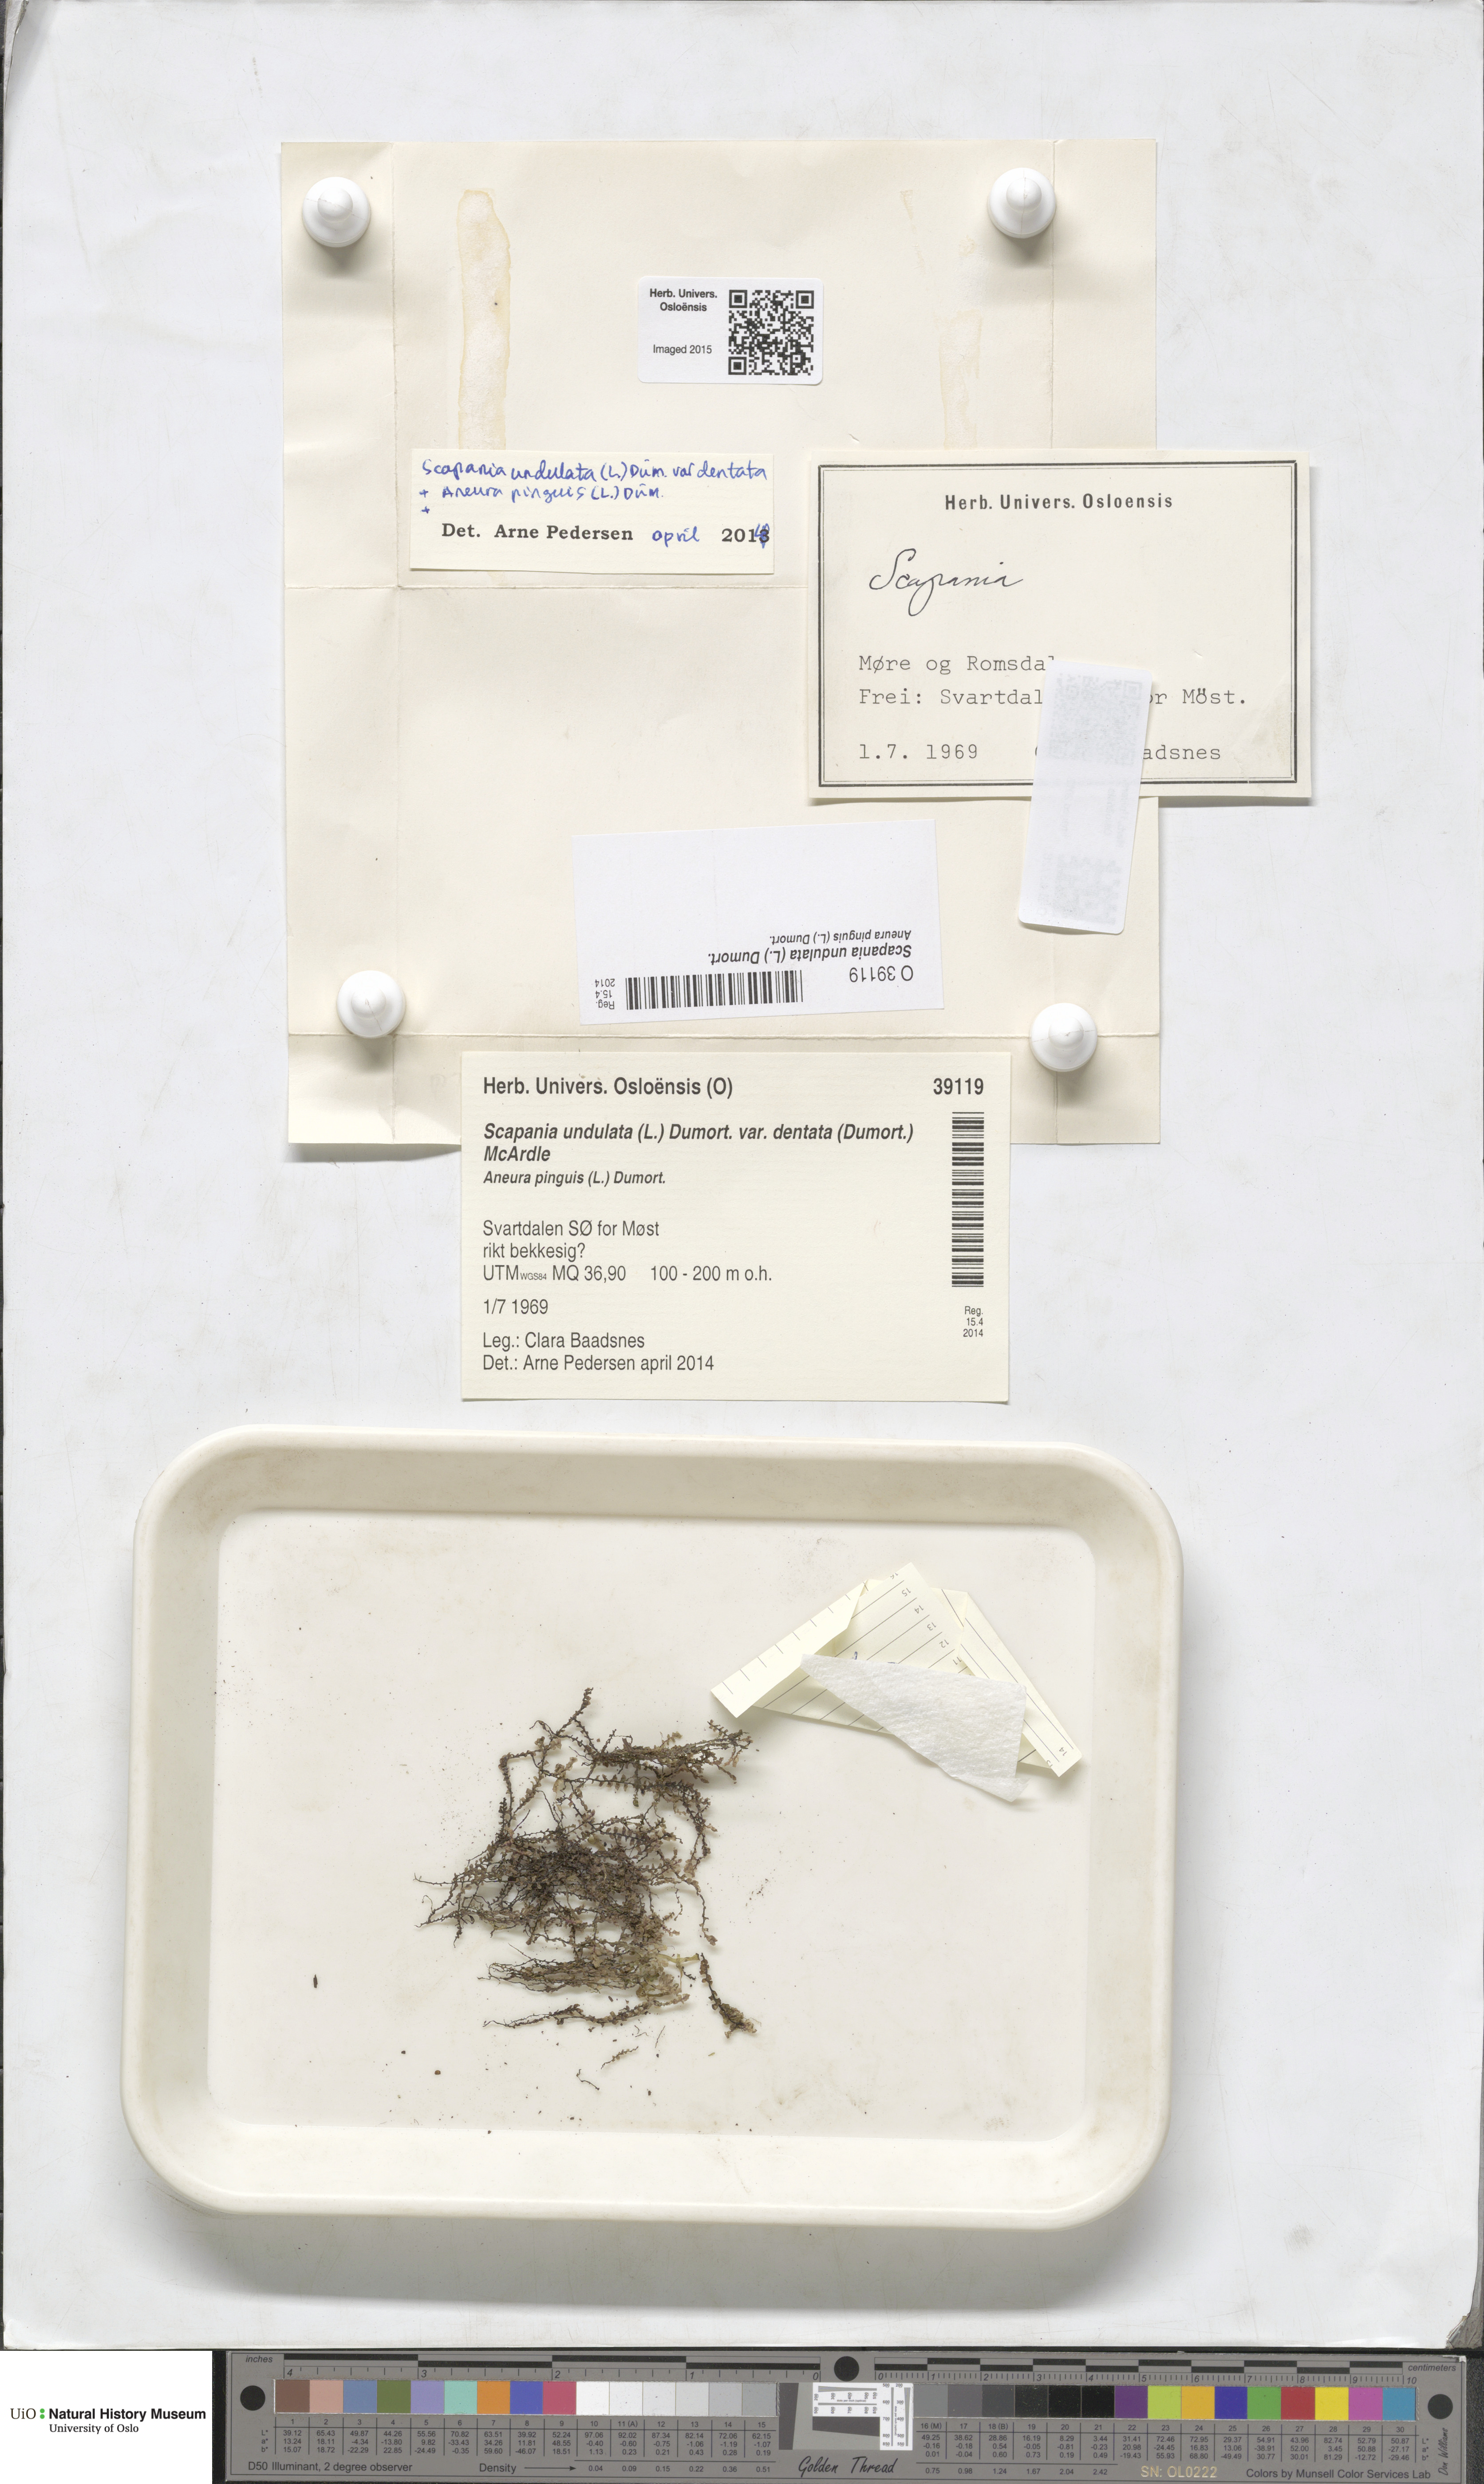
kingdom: Plantae
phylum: Marchantiophyta
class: Jungermanniopsida
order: Jungermanniales
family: Scapaniaceae
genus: Scapania
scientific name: Scapania undulata
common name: Water earwort
